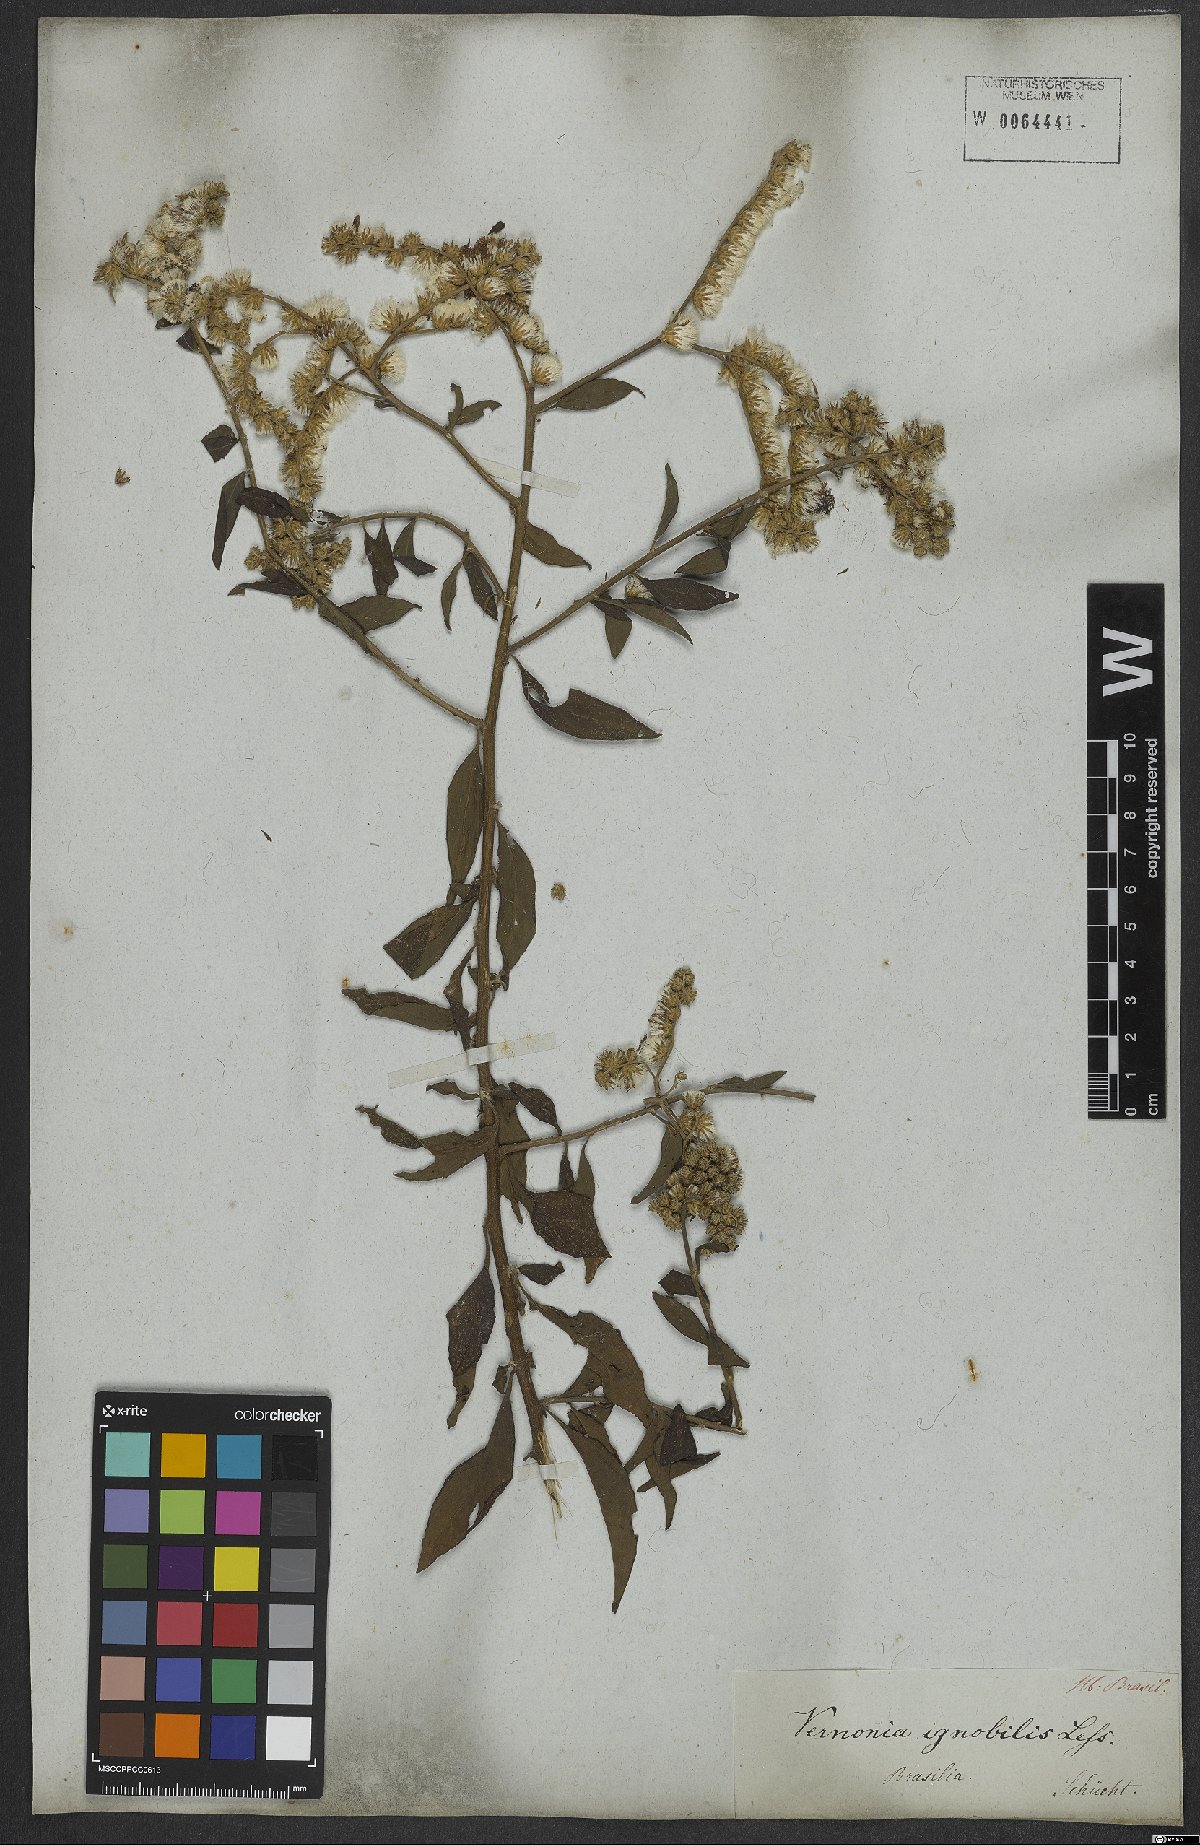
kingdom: Plantae
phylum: Tracheophyta
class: Magnoliopsida
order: Asterales
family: Asteraceae
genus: Vernonanthura
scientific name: Vernonanthura ignobilis
